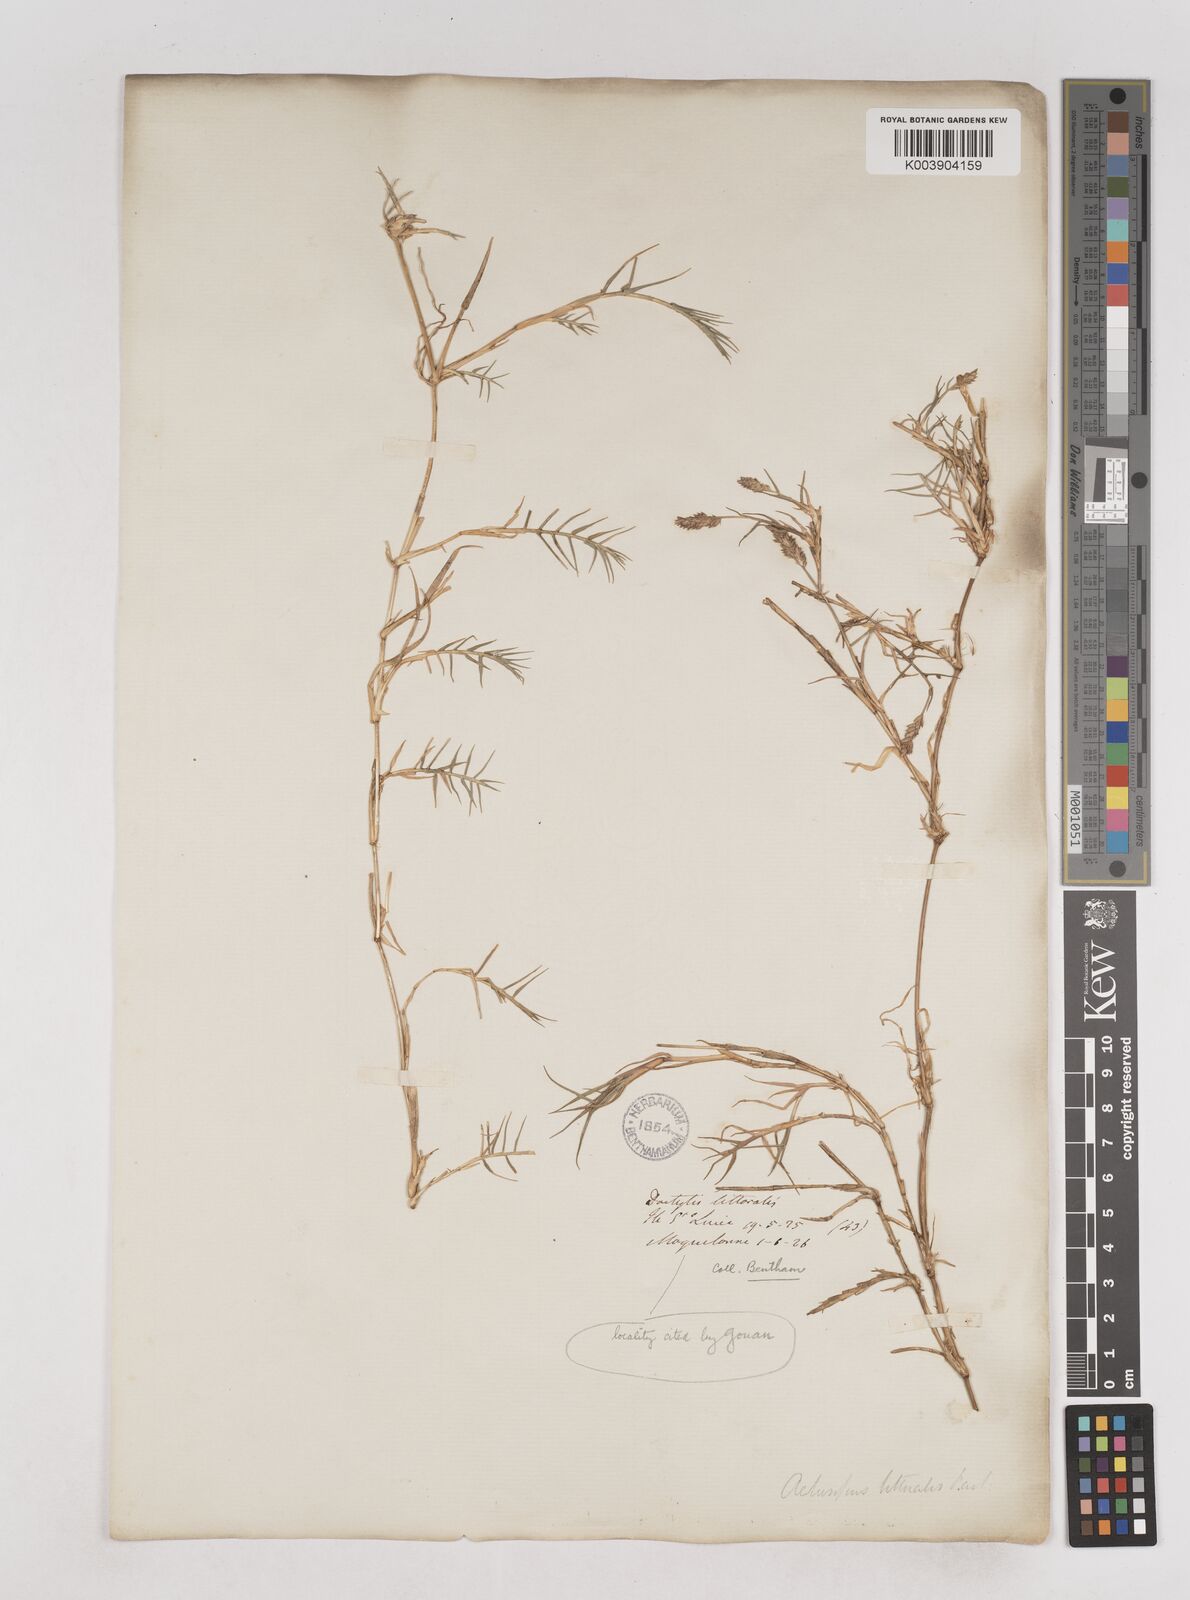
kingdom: Plantae
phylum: Tracheophyta
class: Liliopsida
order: Poales
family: Poaceae
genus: Aeluropus
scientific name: Aeluropus littoralis
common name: Indian walnut
